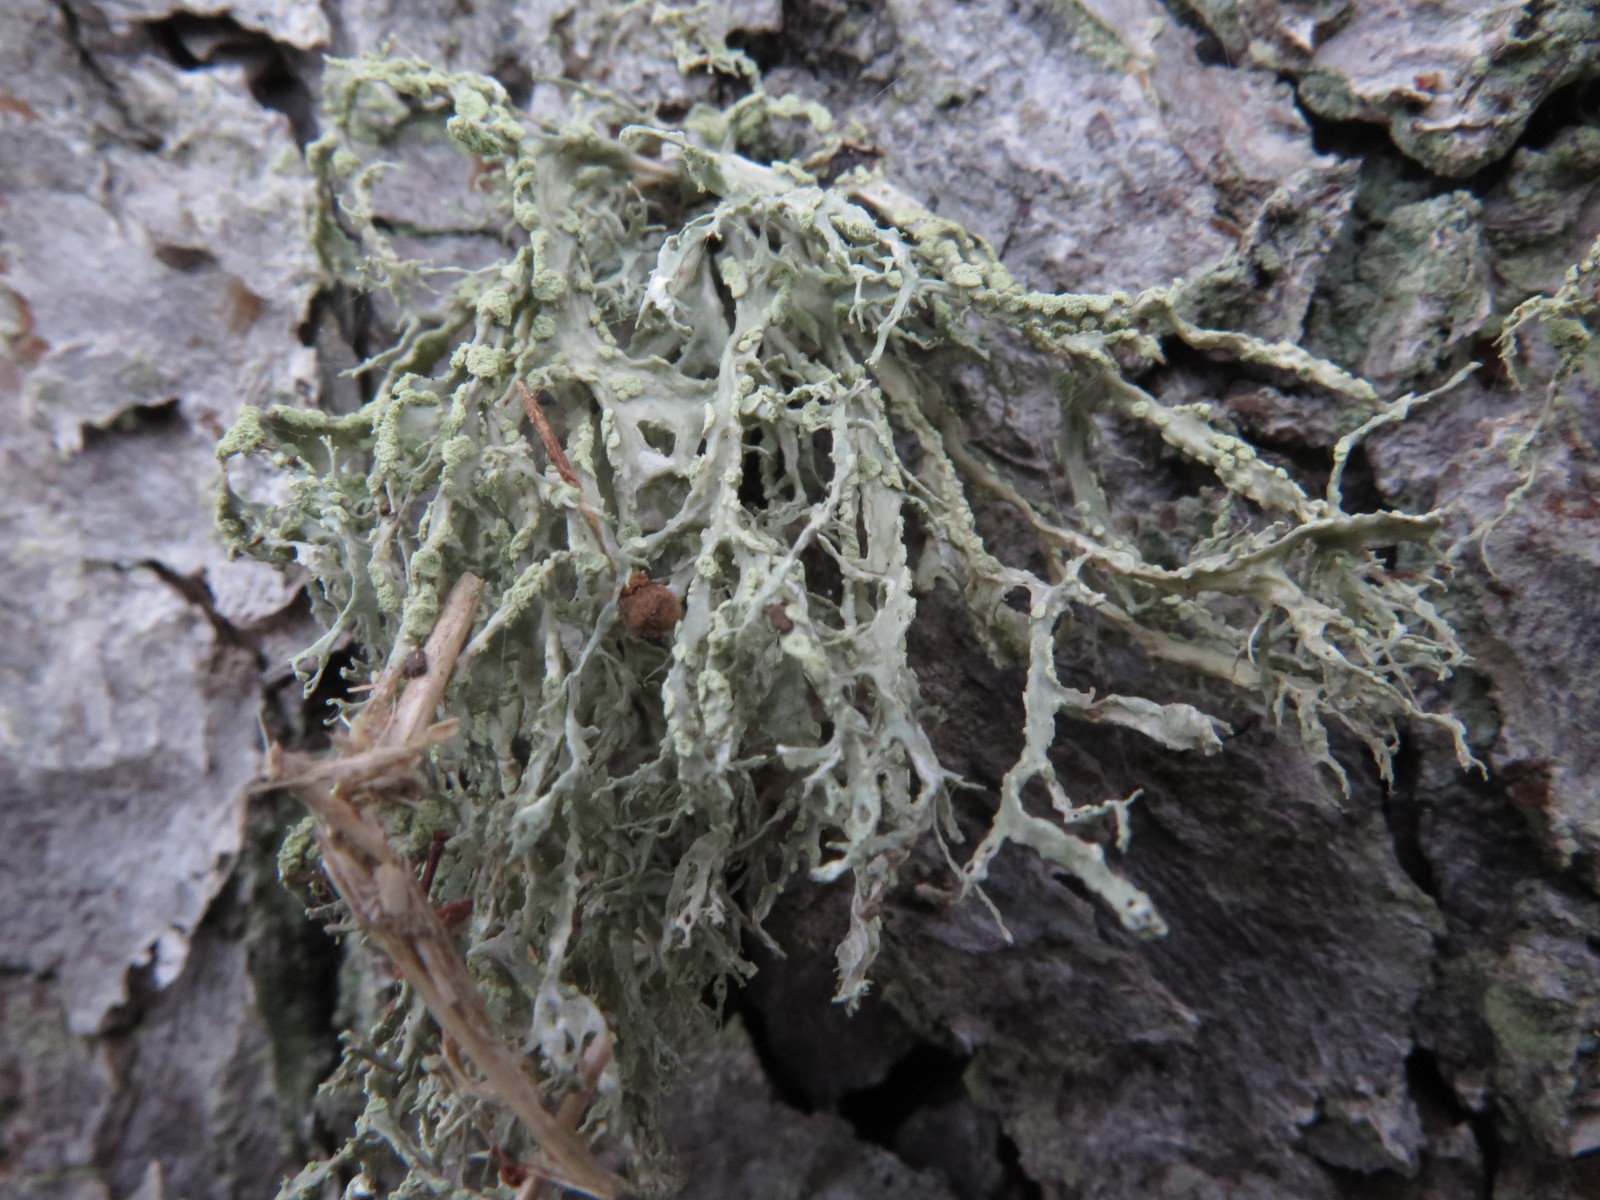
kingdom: Fungi
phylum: Ascomycota
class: Lecanoromycetes
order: Lecanorales
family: Ramalinaceae
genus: Ramalina
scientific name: Ramalina farinacea
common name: melet grenlav
